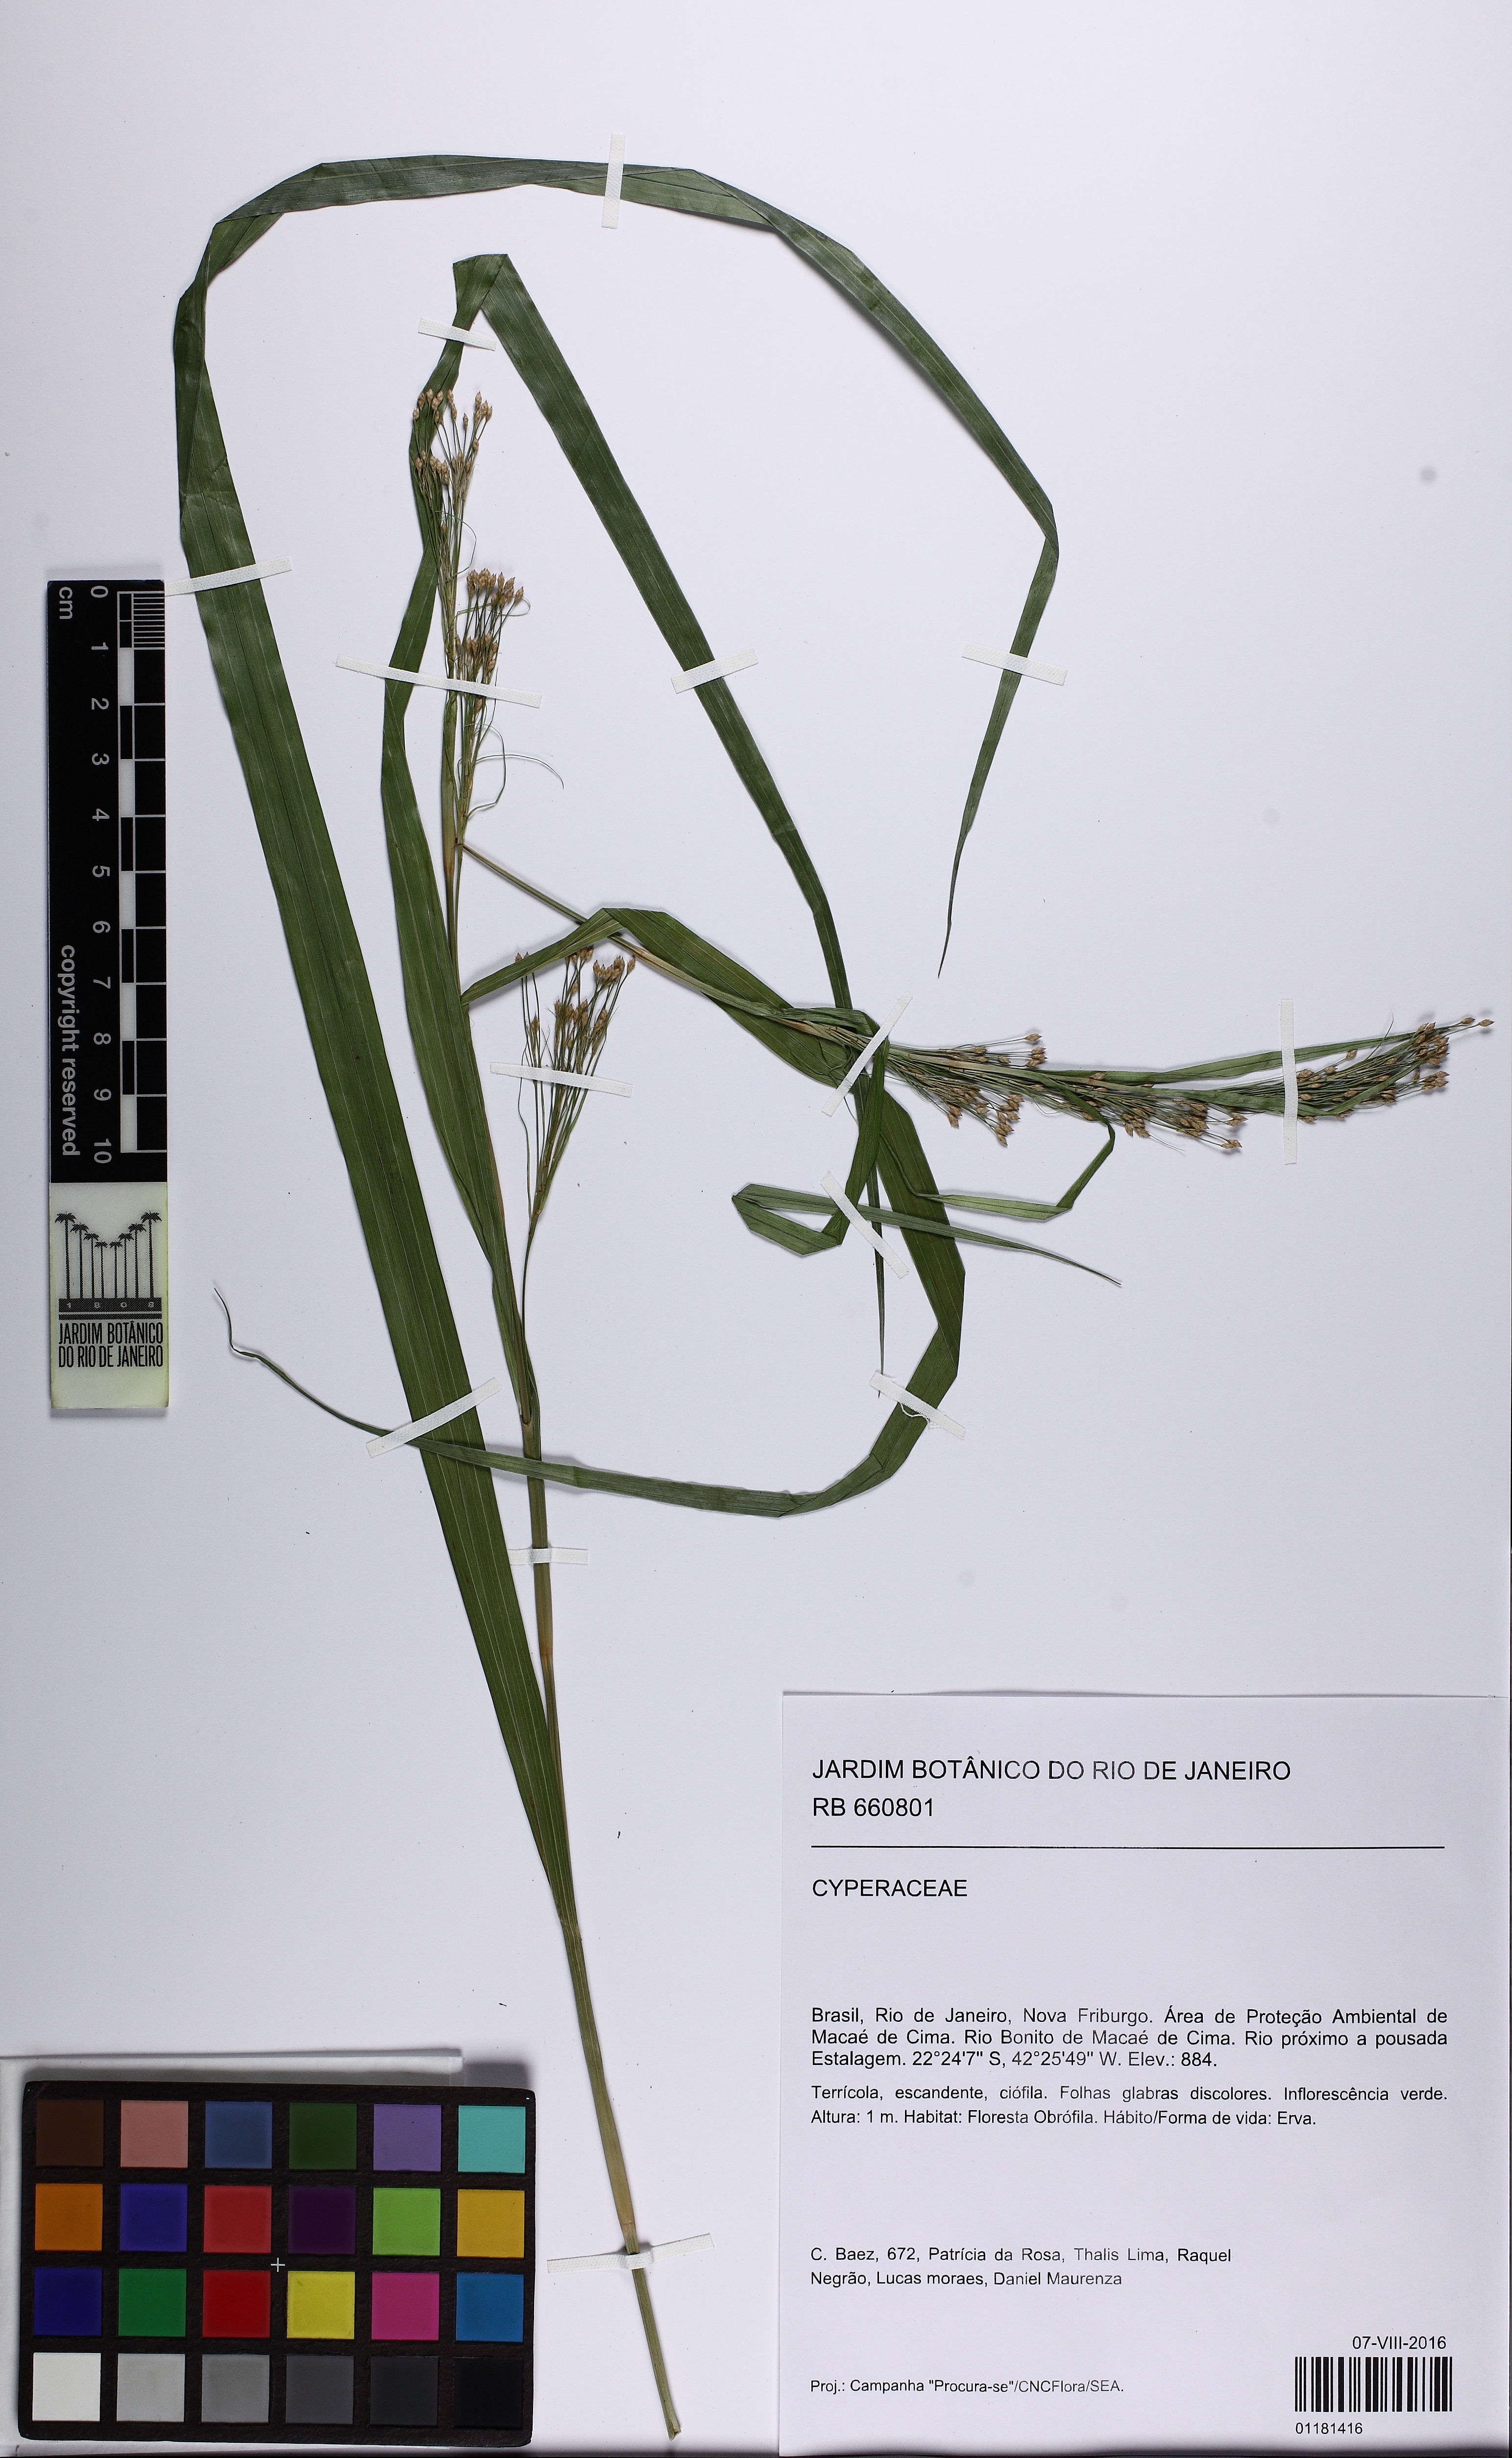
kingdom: Plantae
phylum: Tracheophyta
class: Liliopsida
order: Poales
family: Cyperaceae
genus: Rhynchospora
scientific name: Rhynchospora
